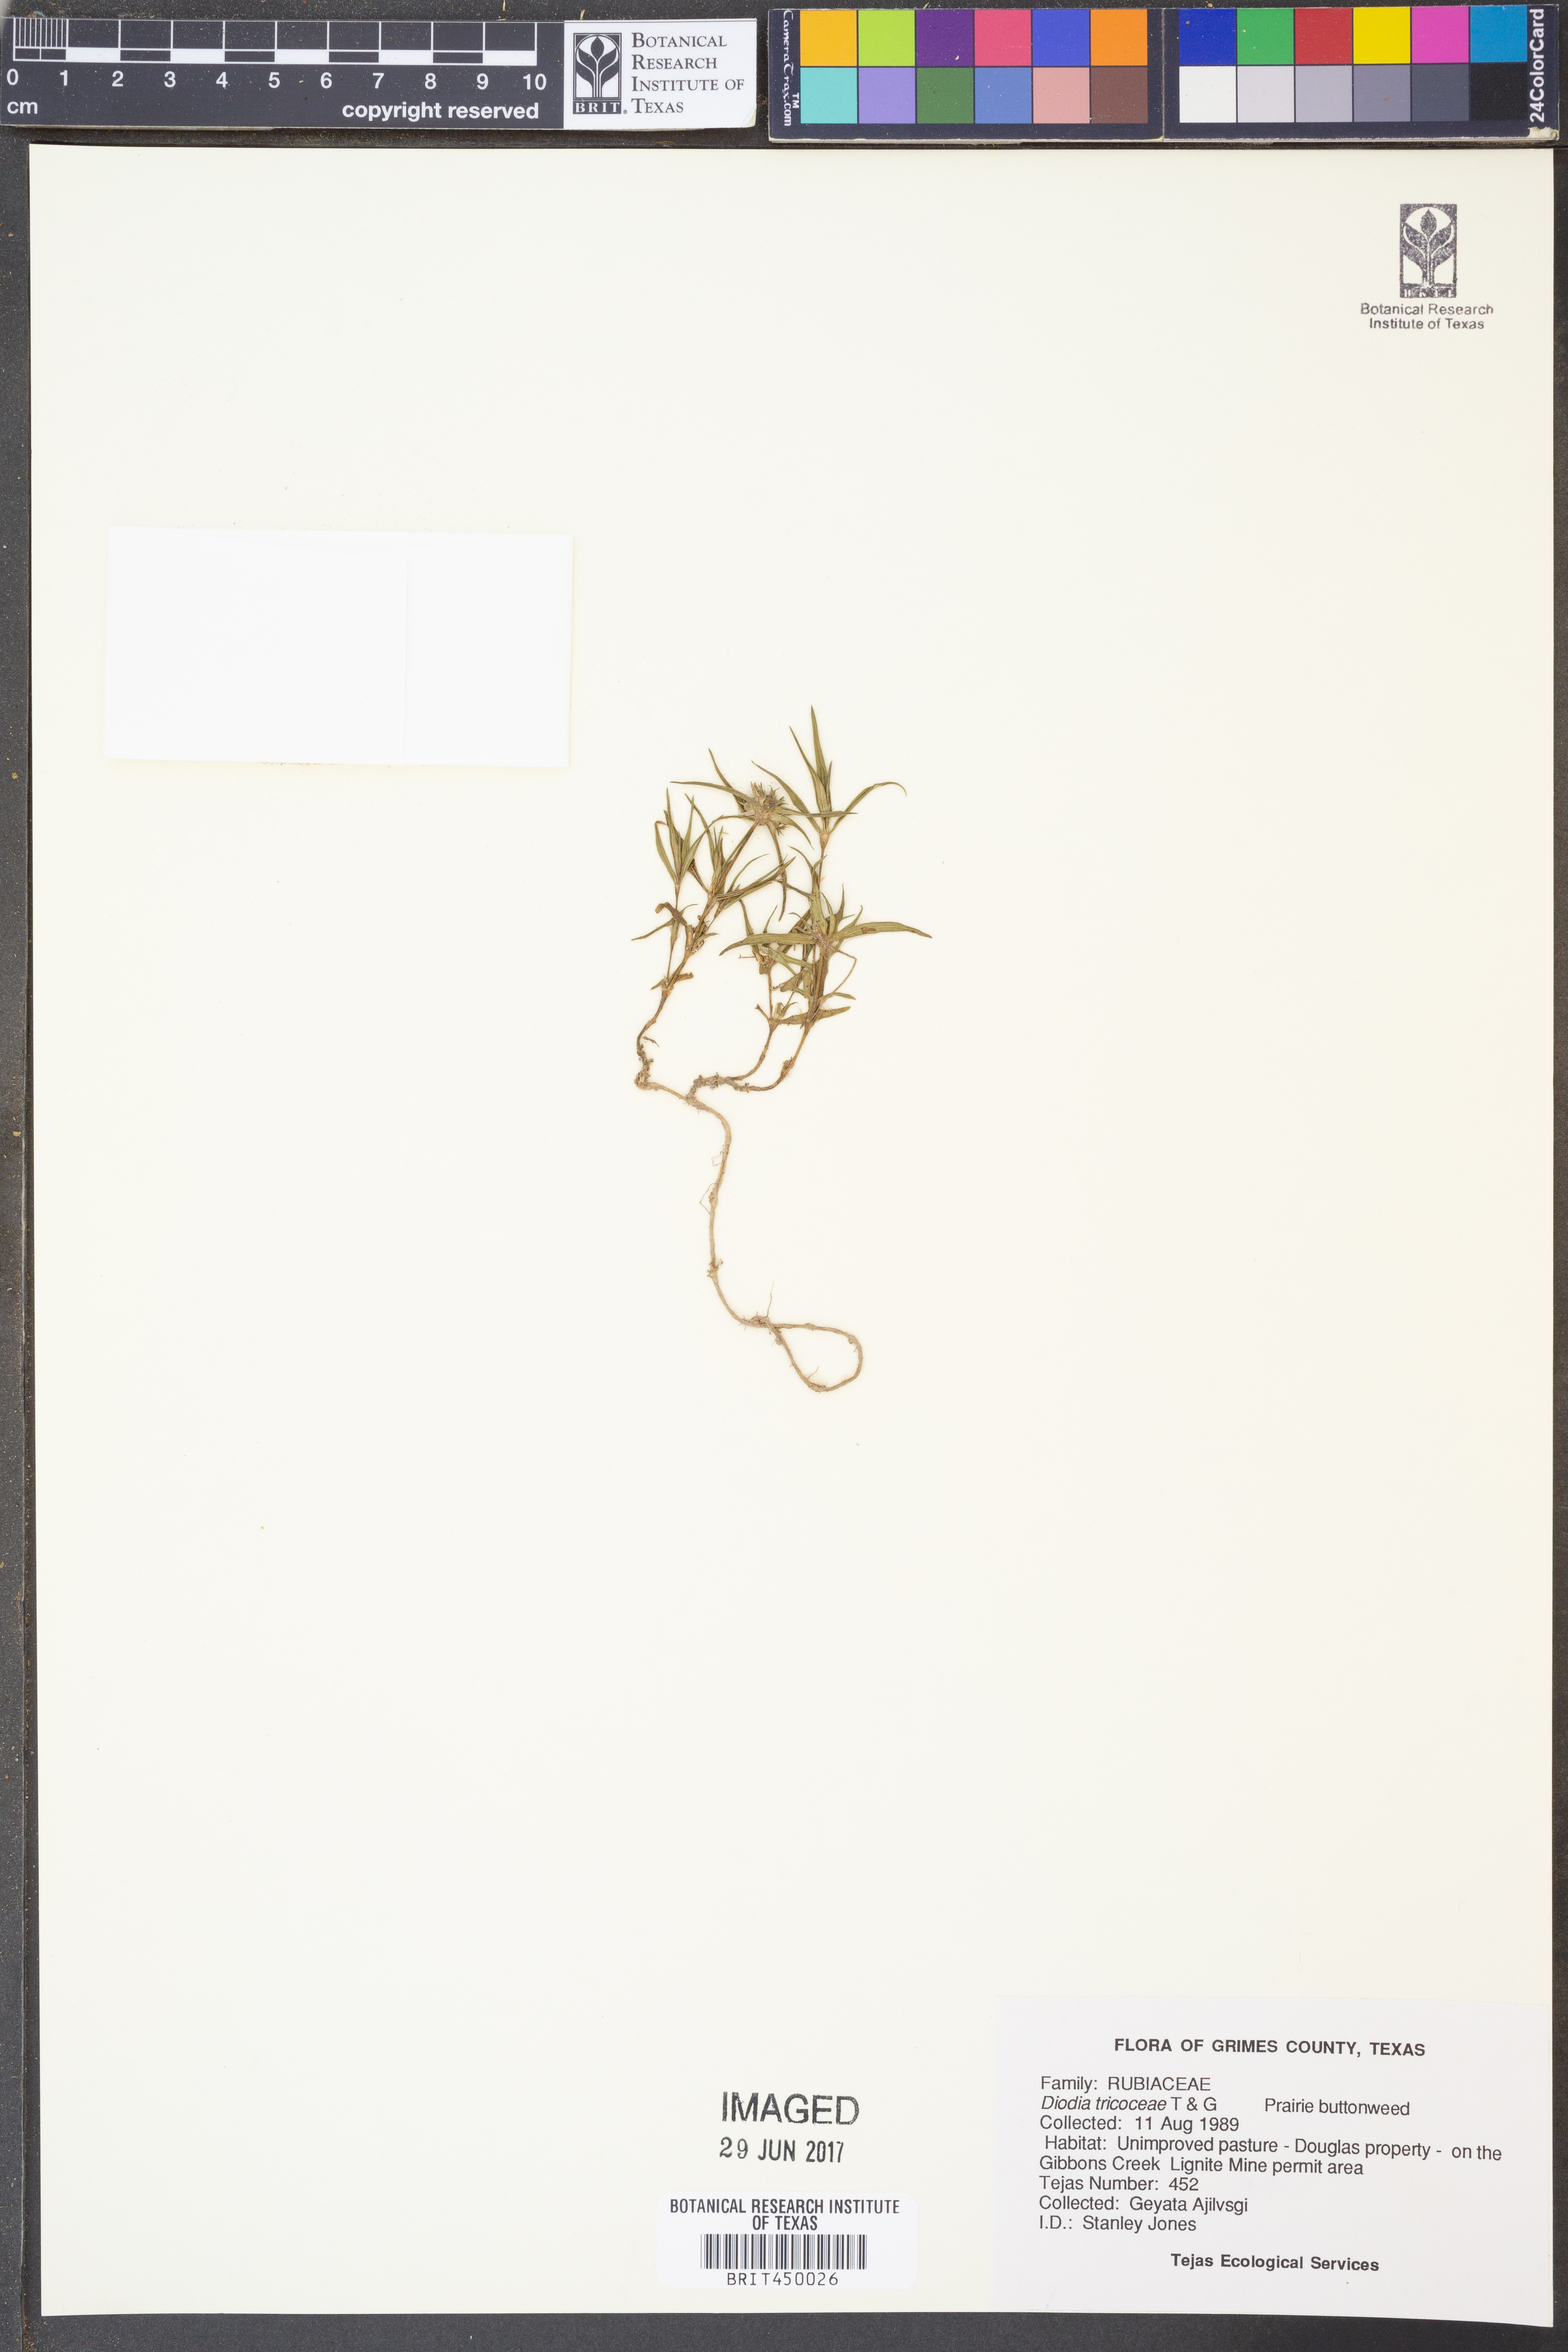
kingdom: Plantae
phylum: Tracheophyta
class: Magnoliopsida
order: Gentianales
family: Rubiaceae
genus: Richardia
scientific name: Richardia tricocca
